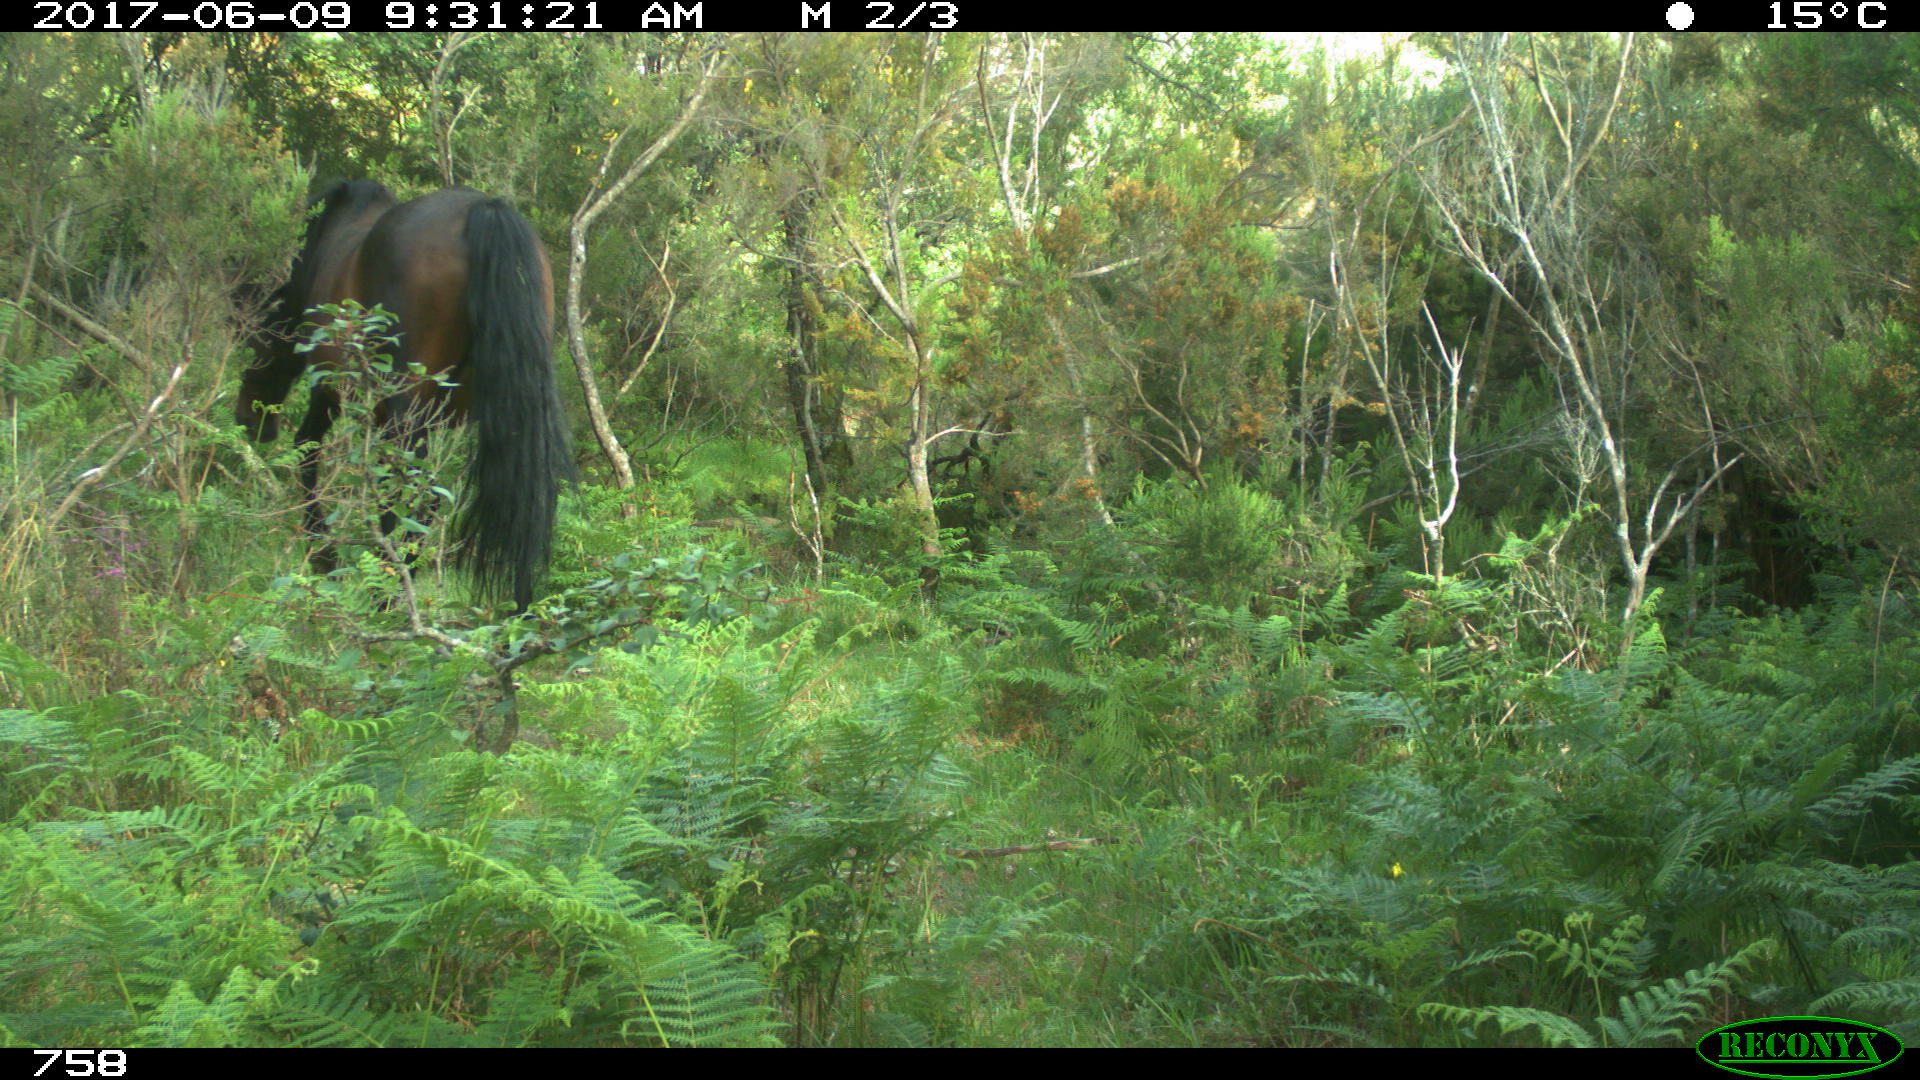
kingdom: Animalia
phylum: Chordata
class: Mammalia
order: Perissodactyla
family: Equidae
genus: Equus
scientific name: Equus caballus
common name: Horse
